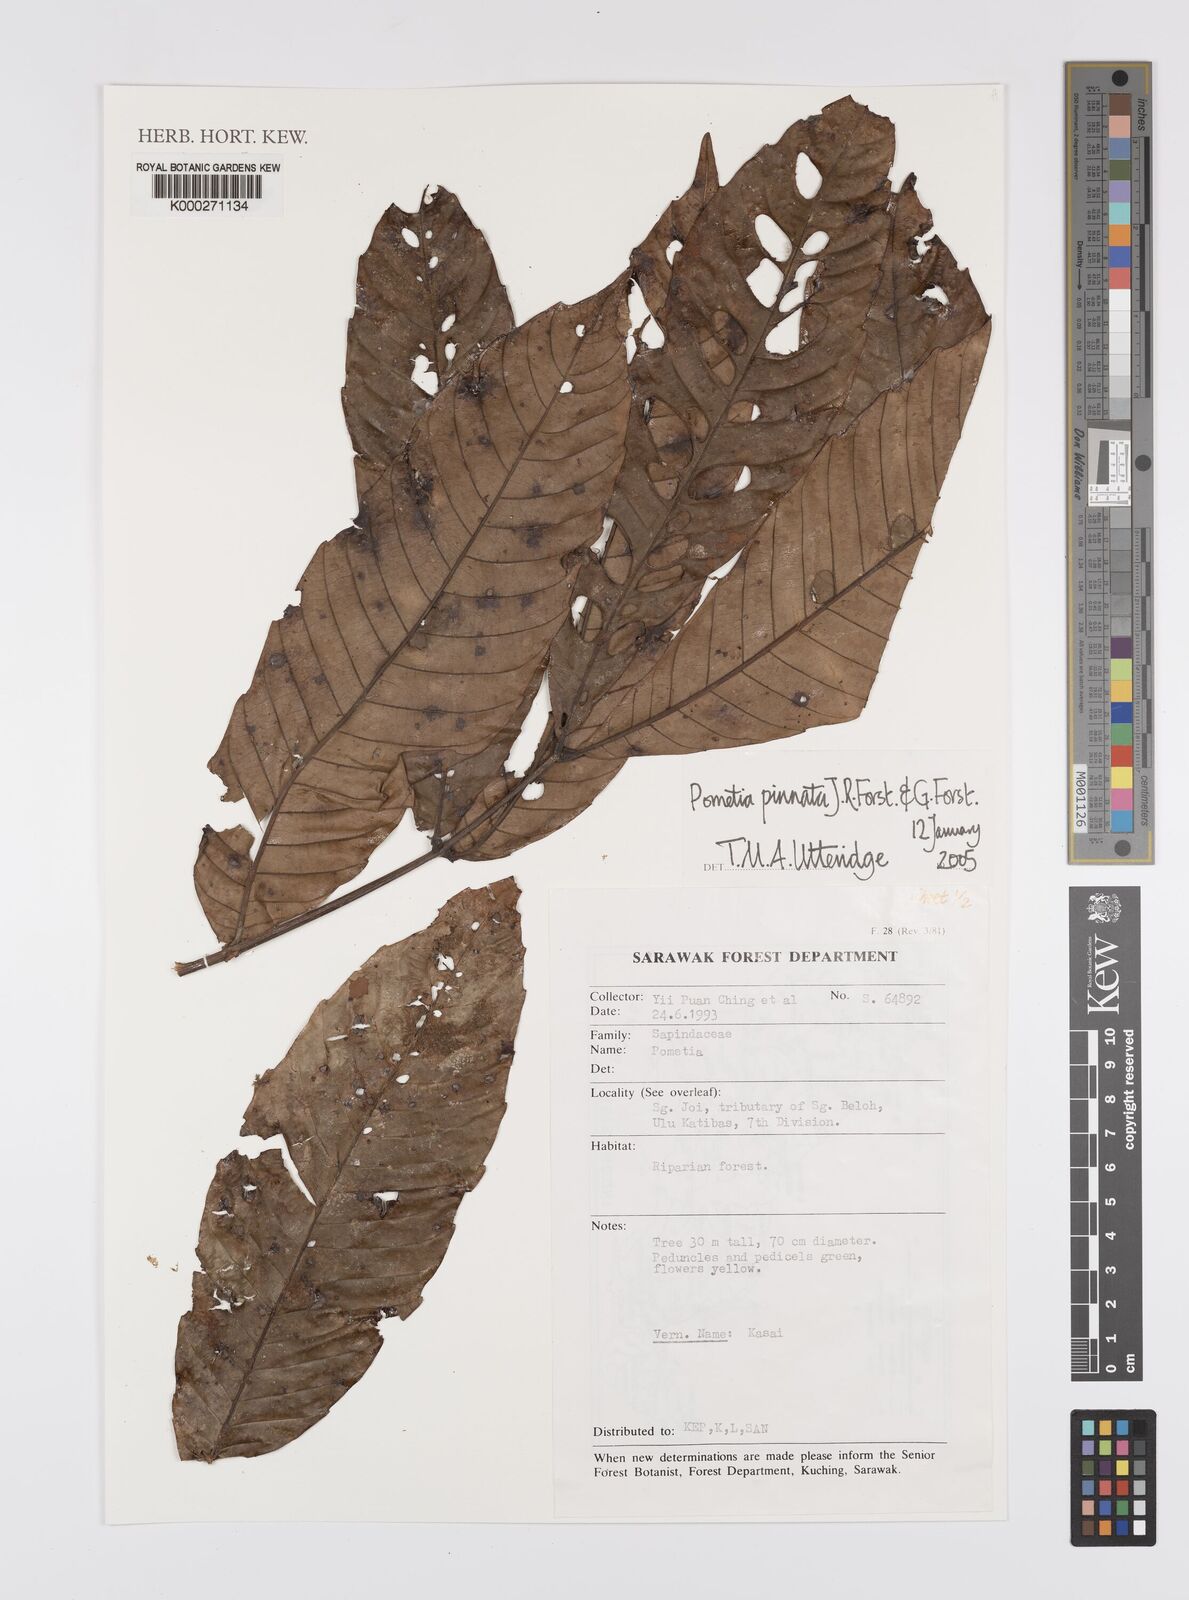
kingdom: Plantae
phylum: Tracheophyta
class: Magnoliopsida
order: Sapindales
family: Sapindaceae
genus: Pometia
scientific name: Pometia pinnata
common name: Oceanic lychee
